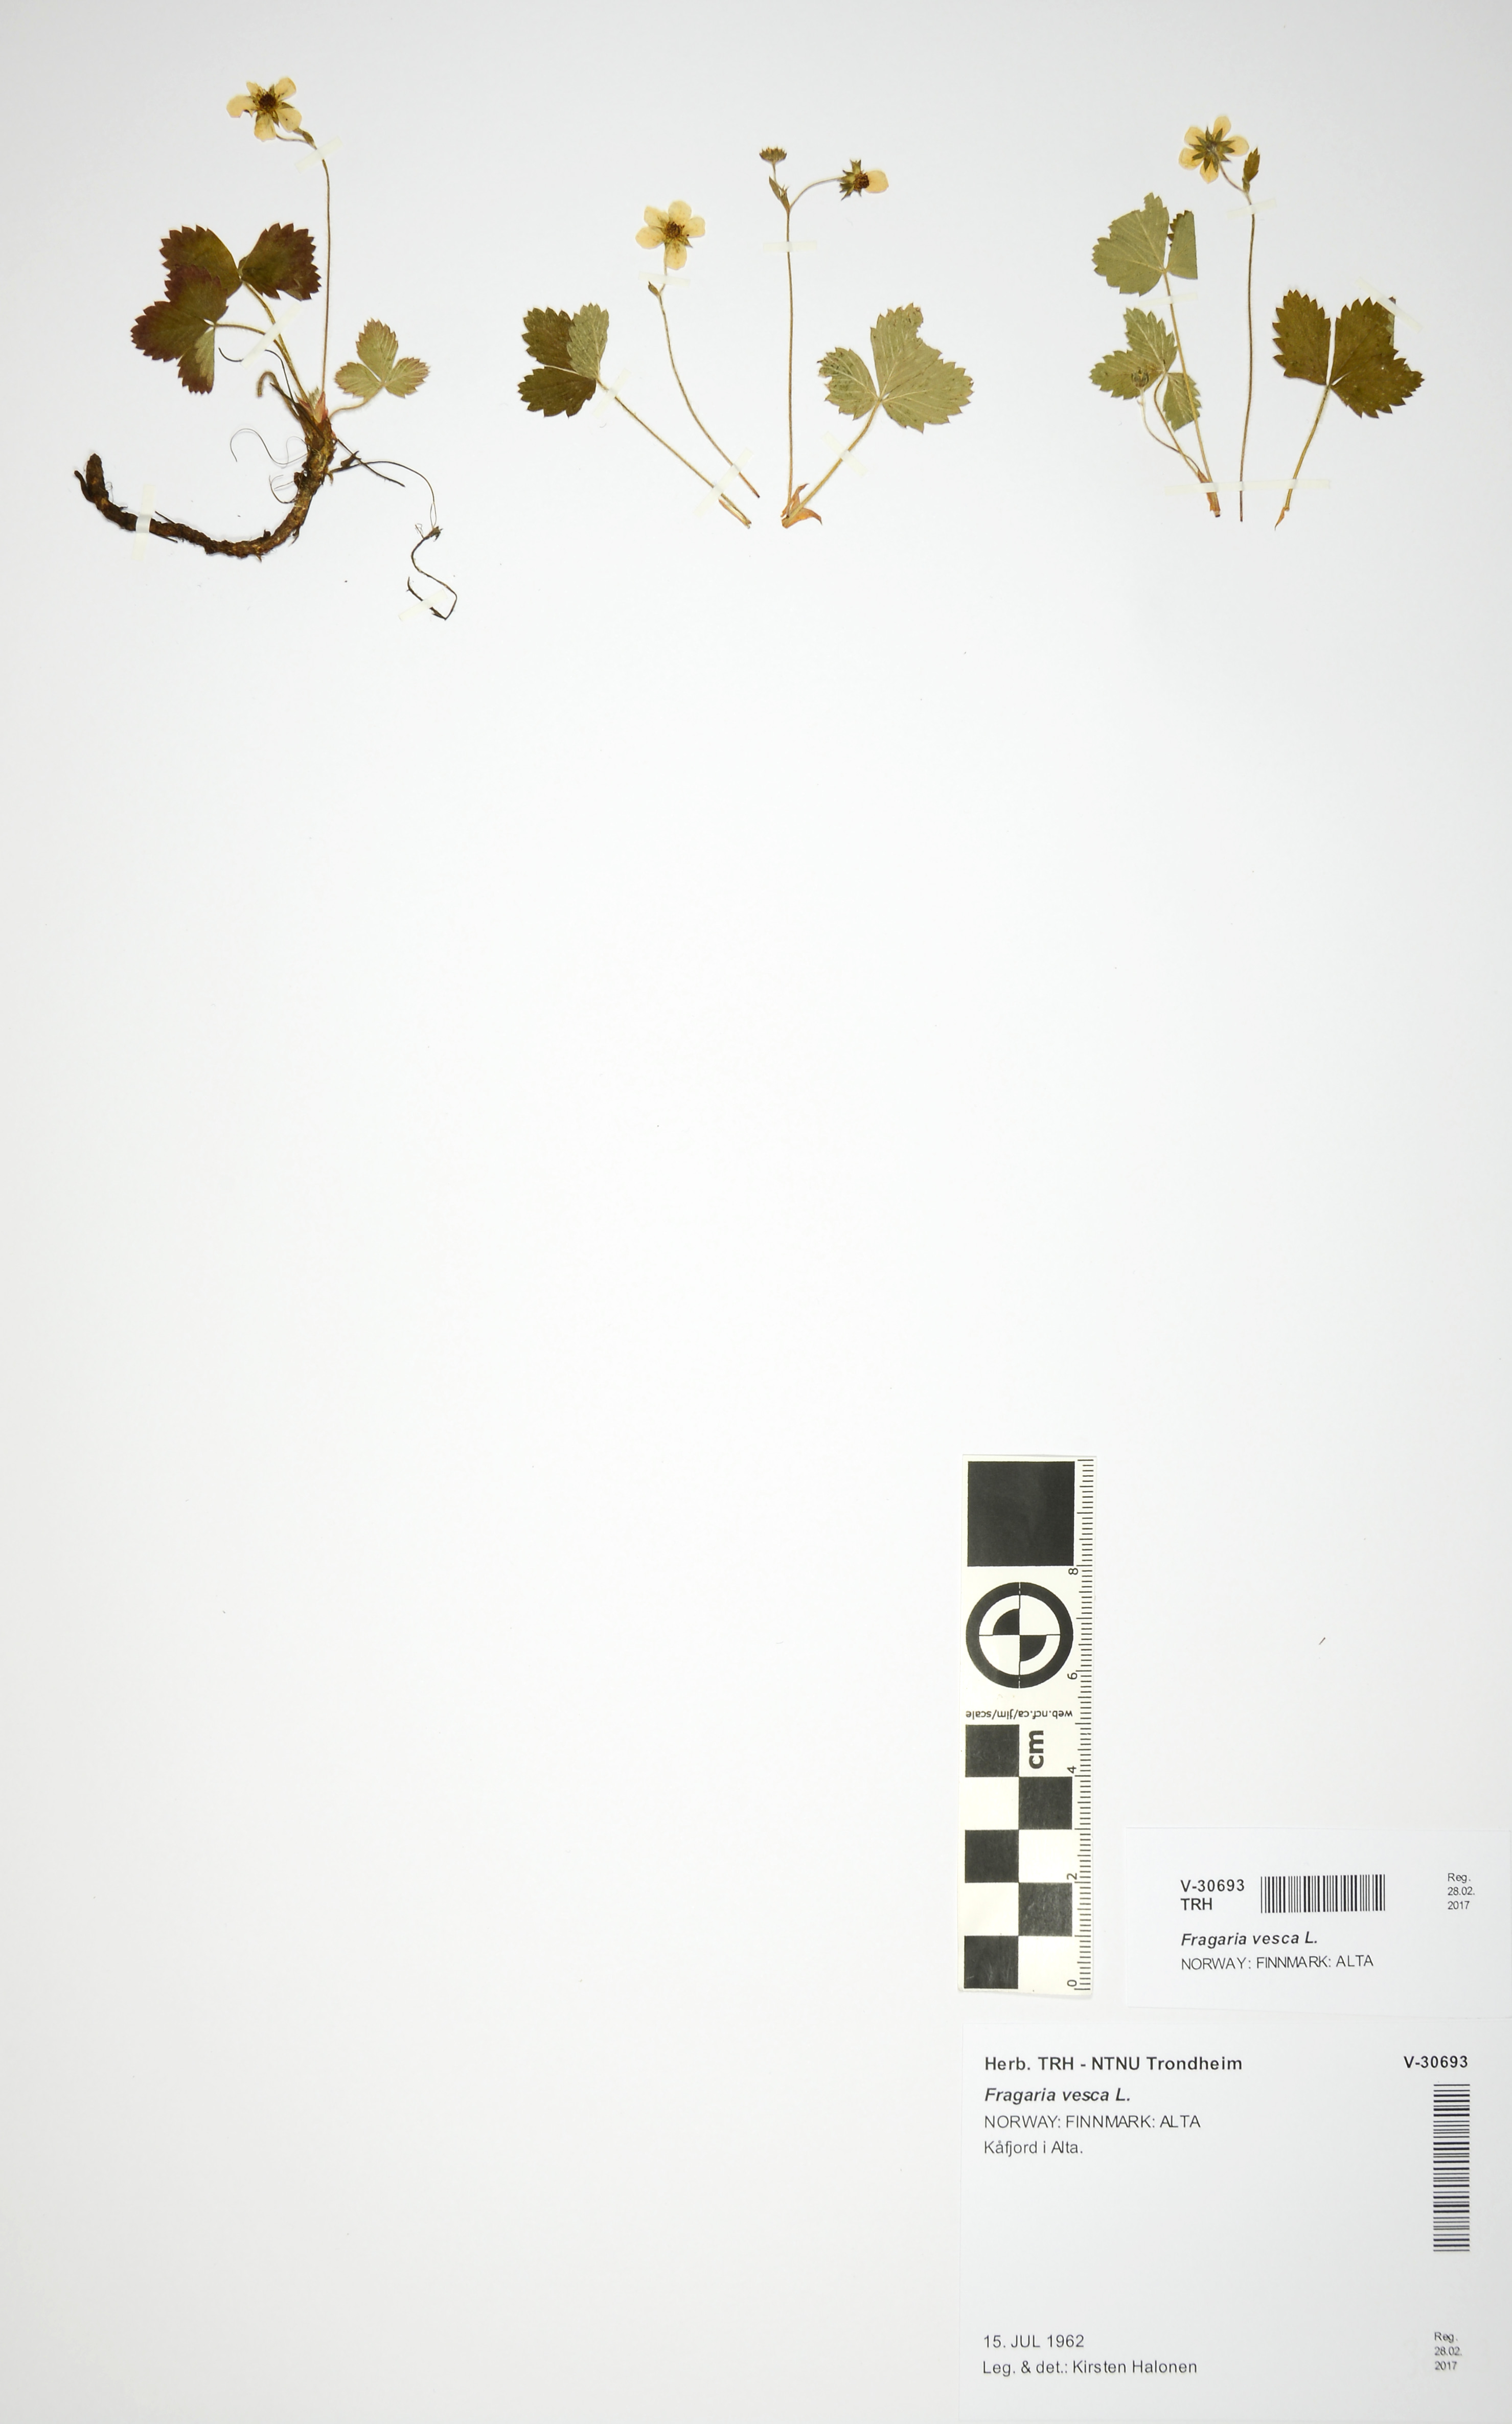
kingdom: Plantae
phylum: Tracheophyta
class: Magnoliopsida
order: Rosales
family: Rosaceae
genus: Fragaria
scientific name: Fragaria vesca
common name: Wild strawberry
